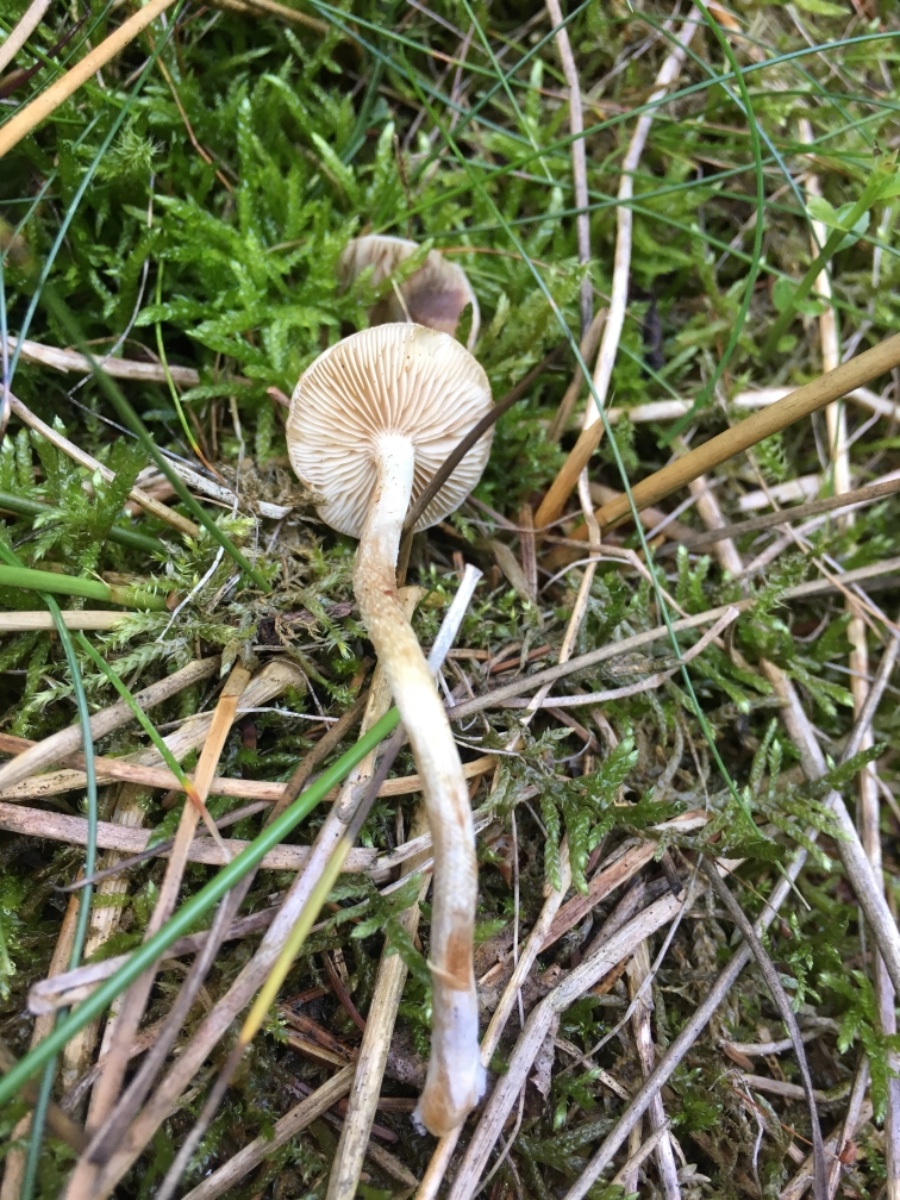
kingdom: Fungi
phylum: Basidiomycota
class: Agaricomycetes
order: Agaricales
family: Cortinariaceae
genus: Cortinarius
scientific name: Cortinarius
